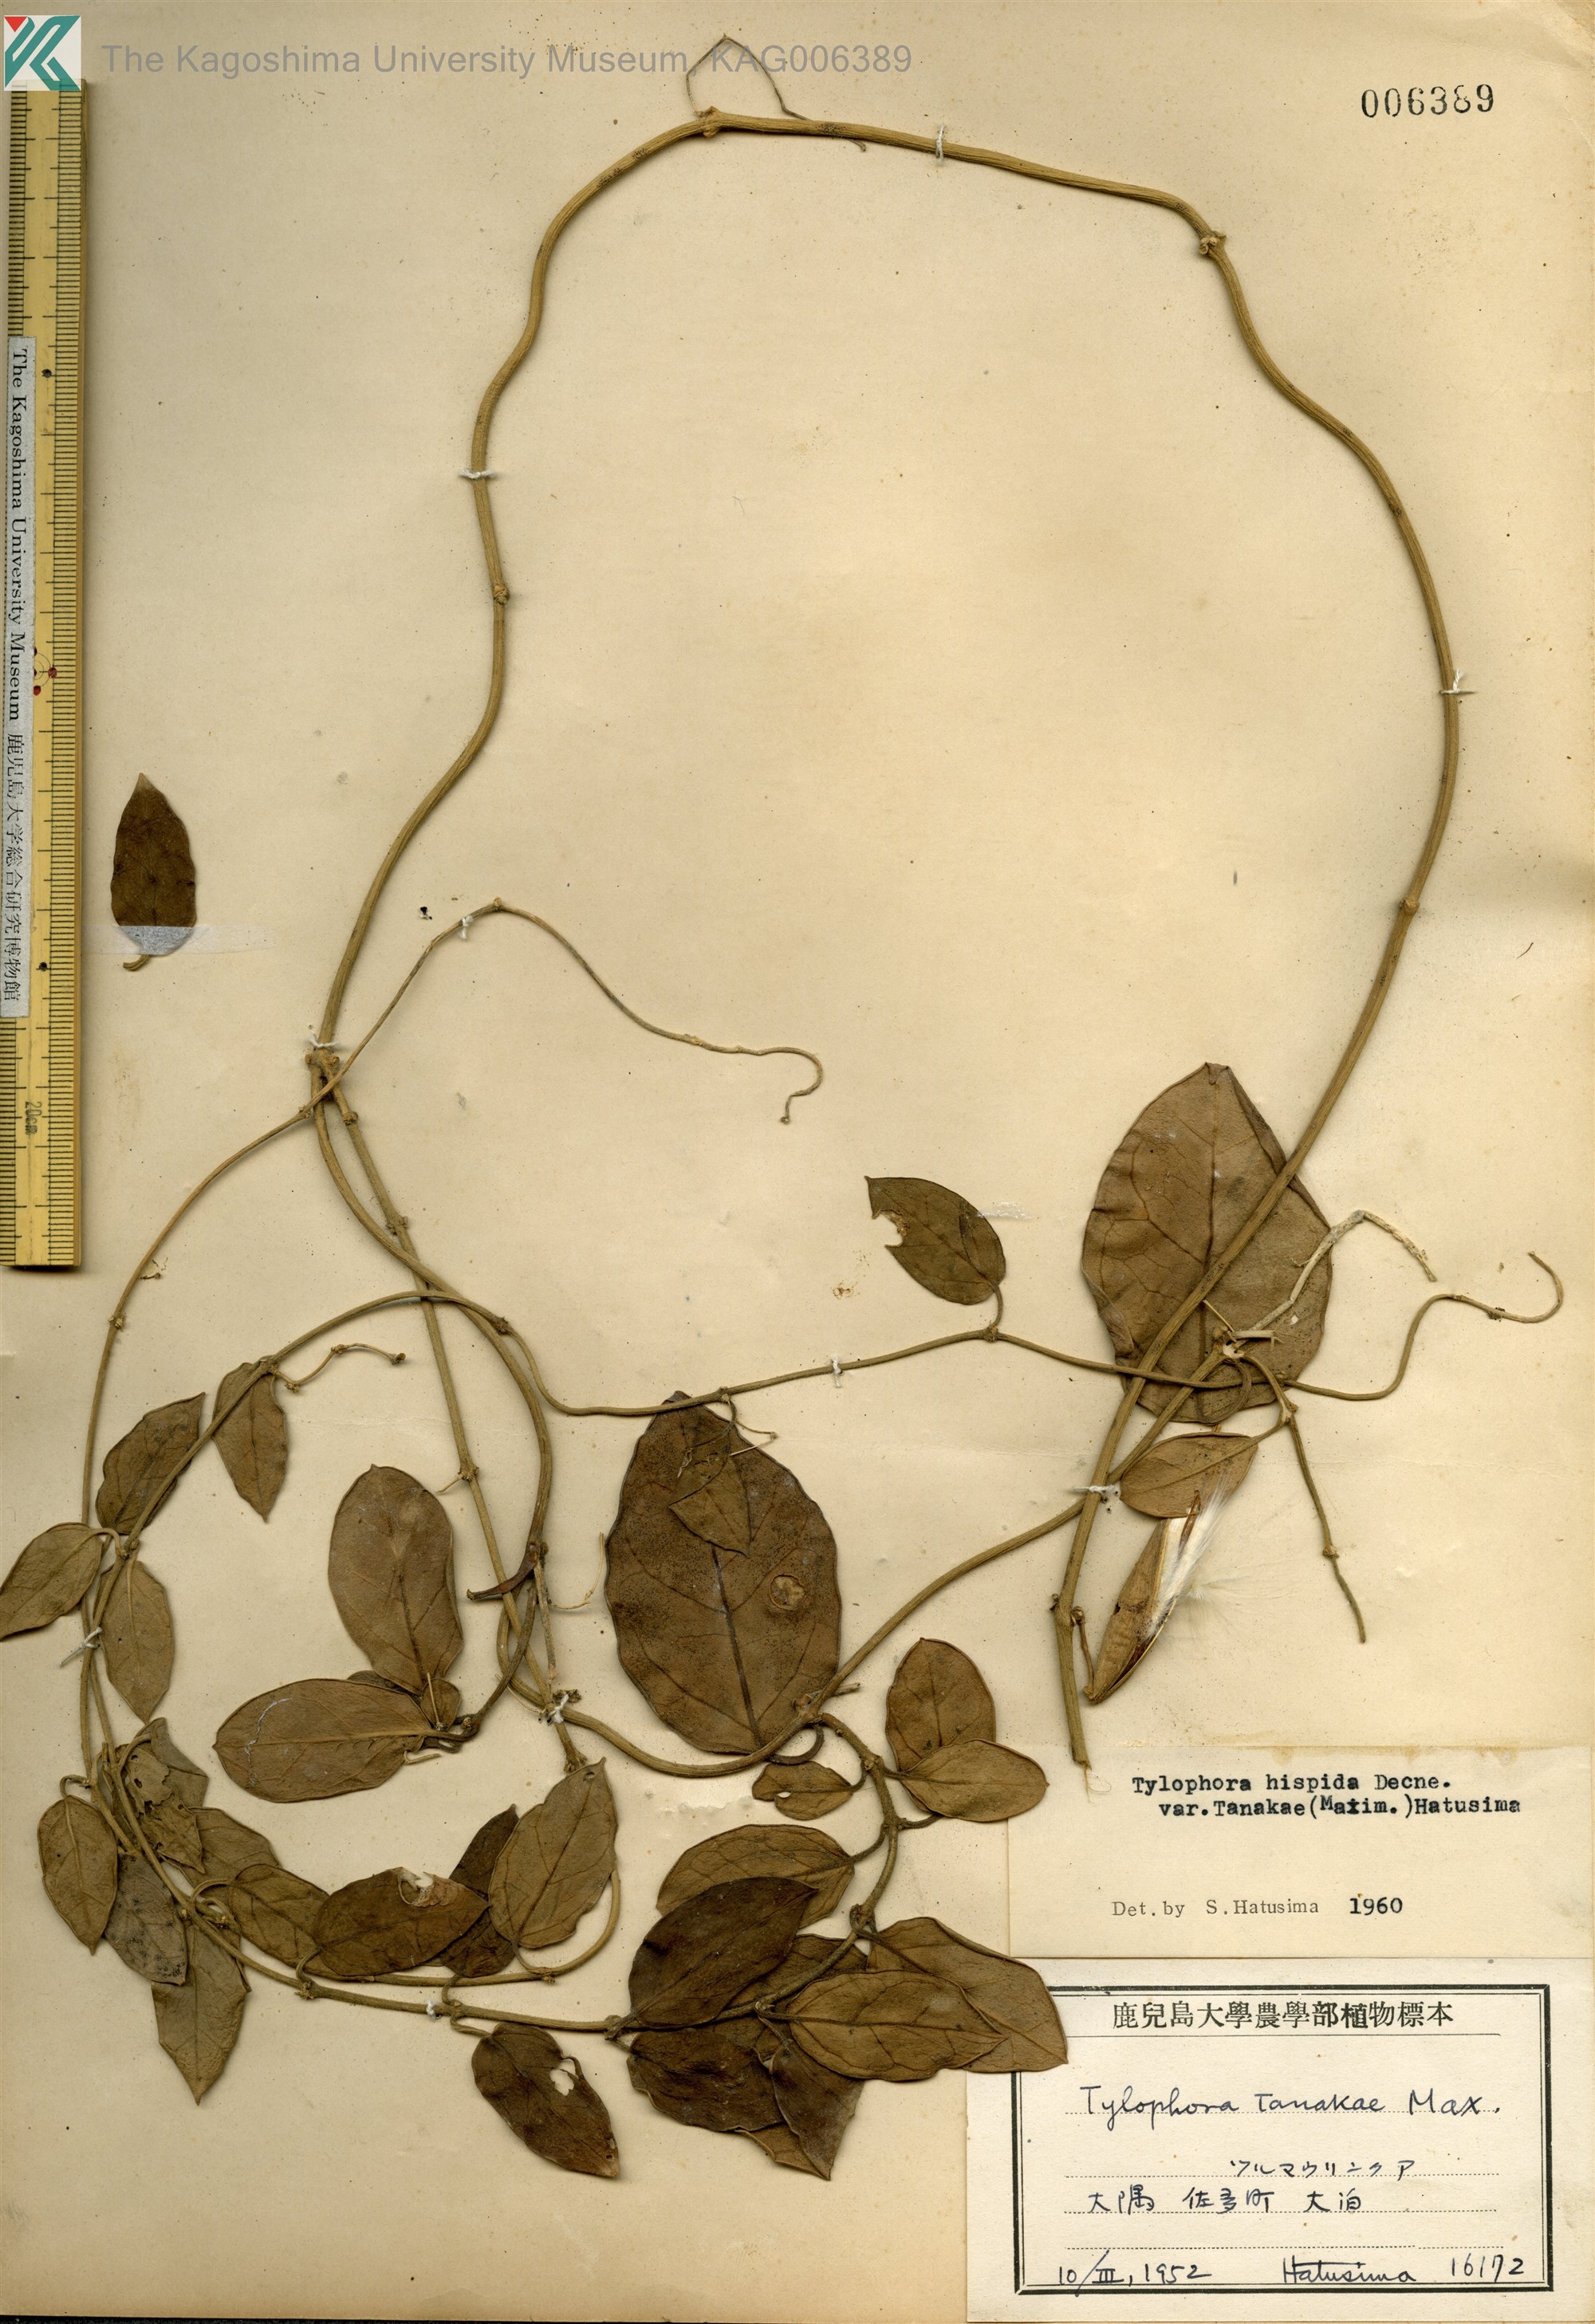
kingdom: Plantae
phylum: Tracheophyta
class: Magnoliopsida
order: Gentianales
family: Apocynaceae
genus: Vincetoxicum
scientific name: Vincetoxicum Tylophora tanakae
